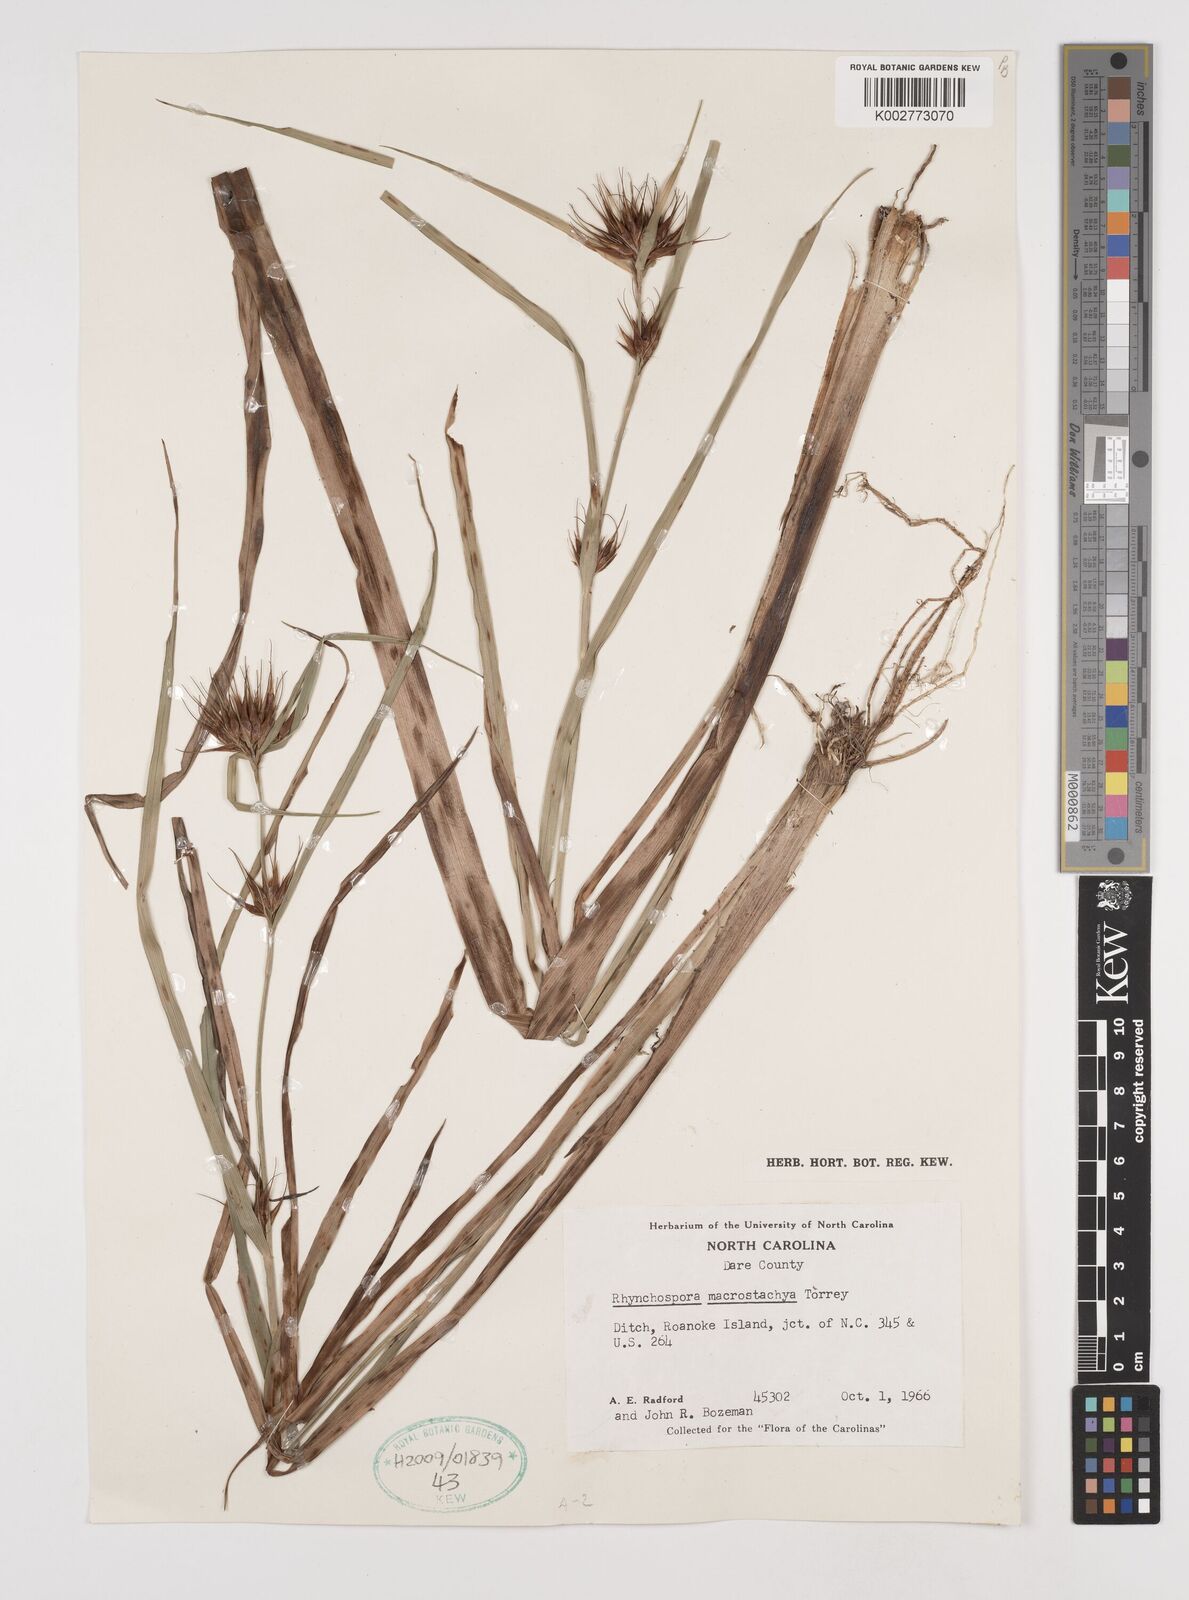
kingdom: Plantae
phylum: Tracheophyta
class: Liliopsida
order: Poales
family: Cyperaceae
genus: Rhynchospora
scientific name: Rhynchospora macrostachya
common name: Tall beakrush
